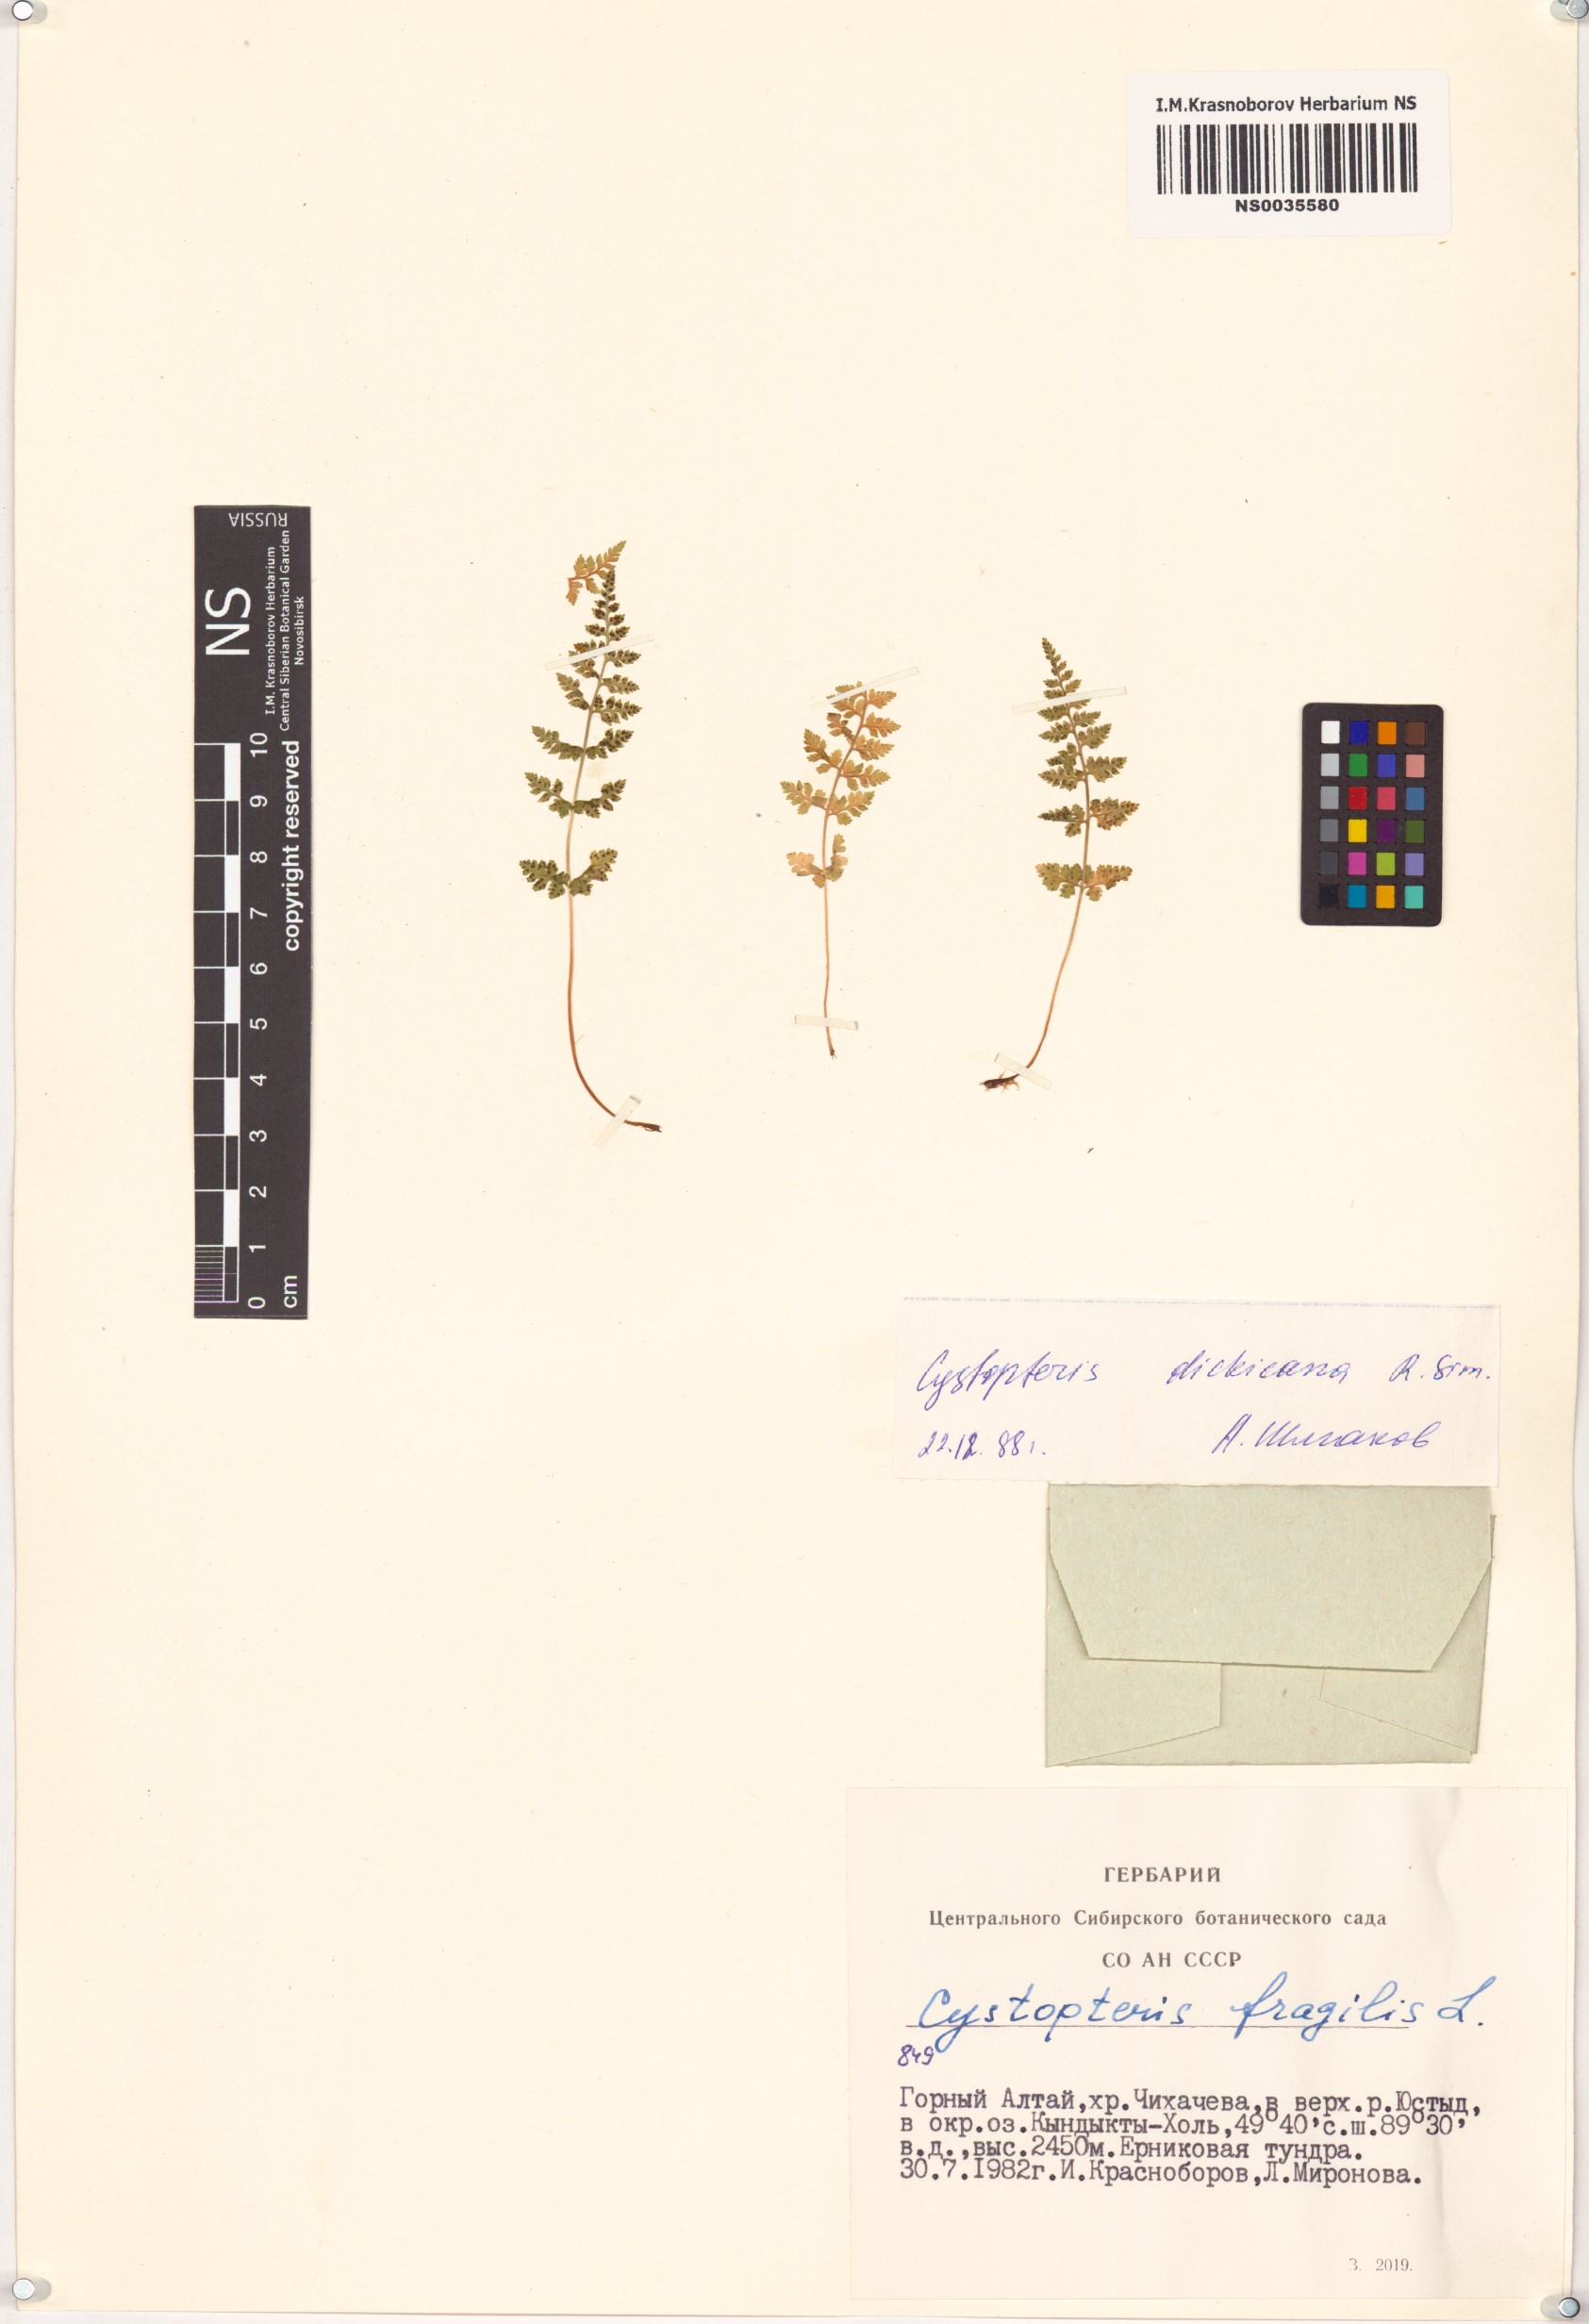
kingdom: Plantae
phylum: Tracheophyta
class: Polypodiopsida
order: Polypodiales
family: Cystopteridaceae
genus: Cystopteris
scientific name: Cystopteris dickieana
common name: Dickie's bladder-fern
